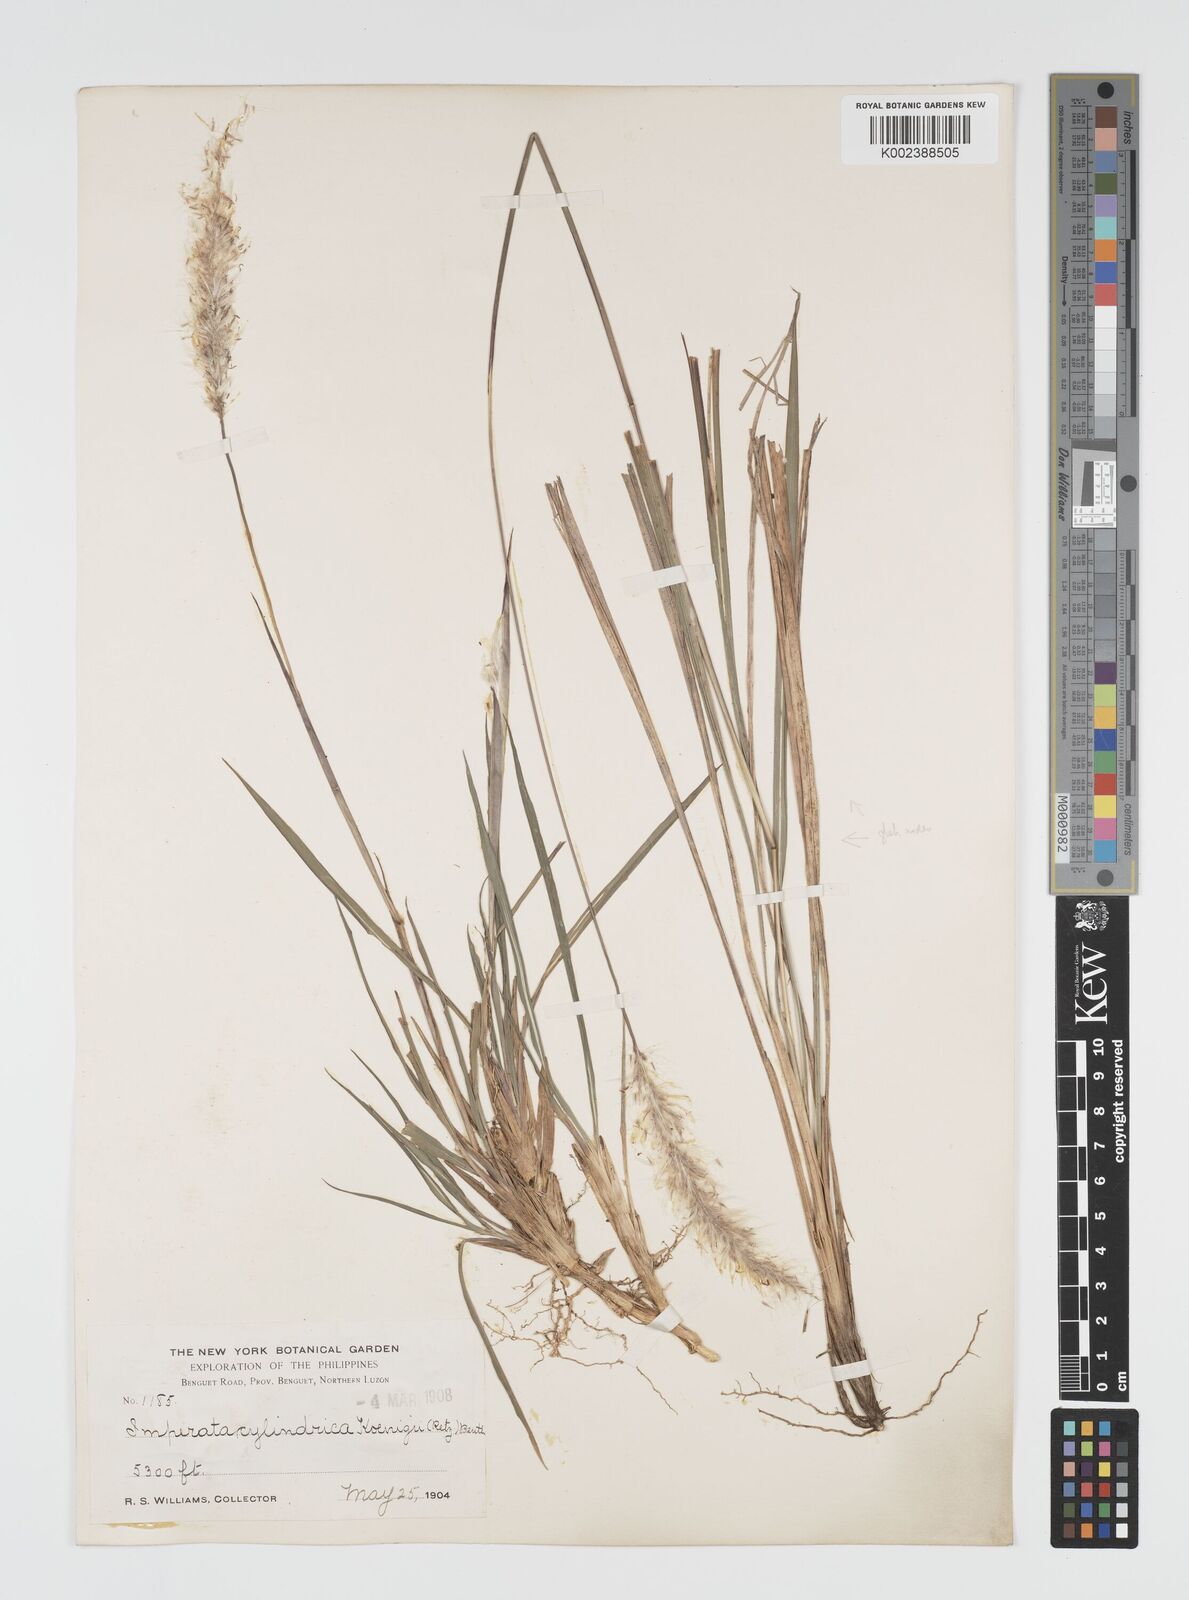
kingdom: Plantae
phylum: Tracheophyta
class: Liliopsida
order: Poales
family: Poaceae
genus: Imperata
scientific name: Imperata cylindrica
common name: Cogongrass
